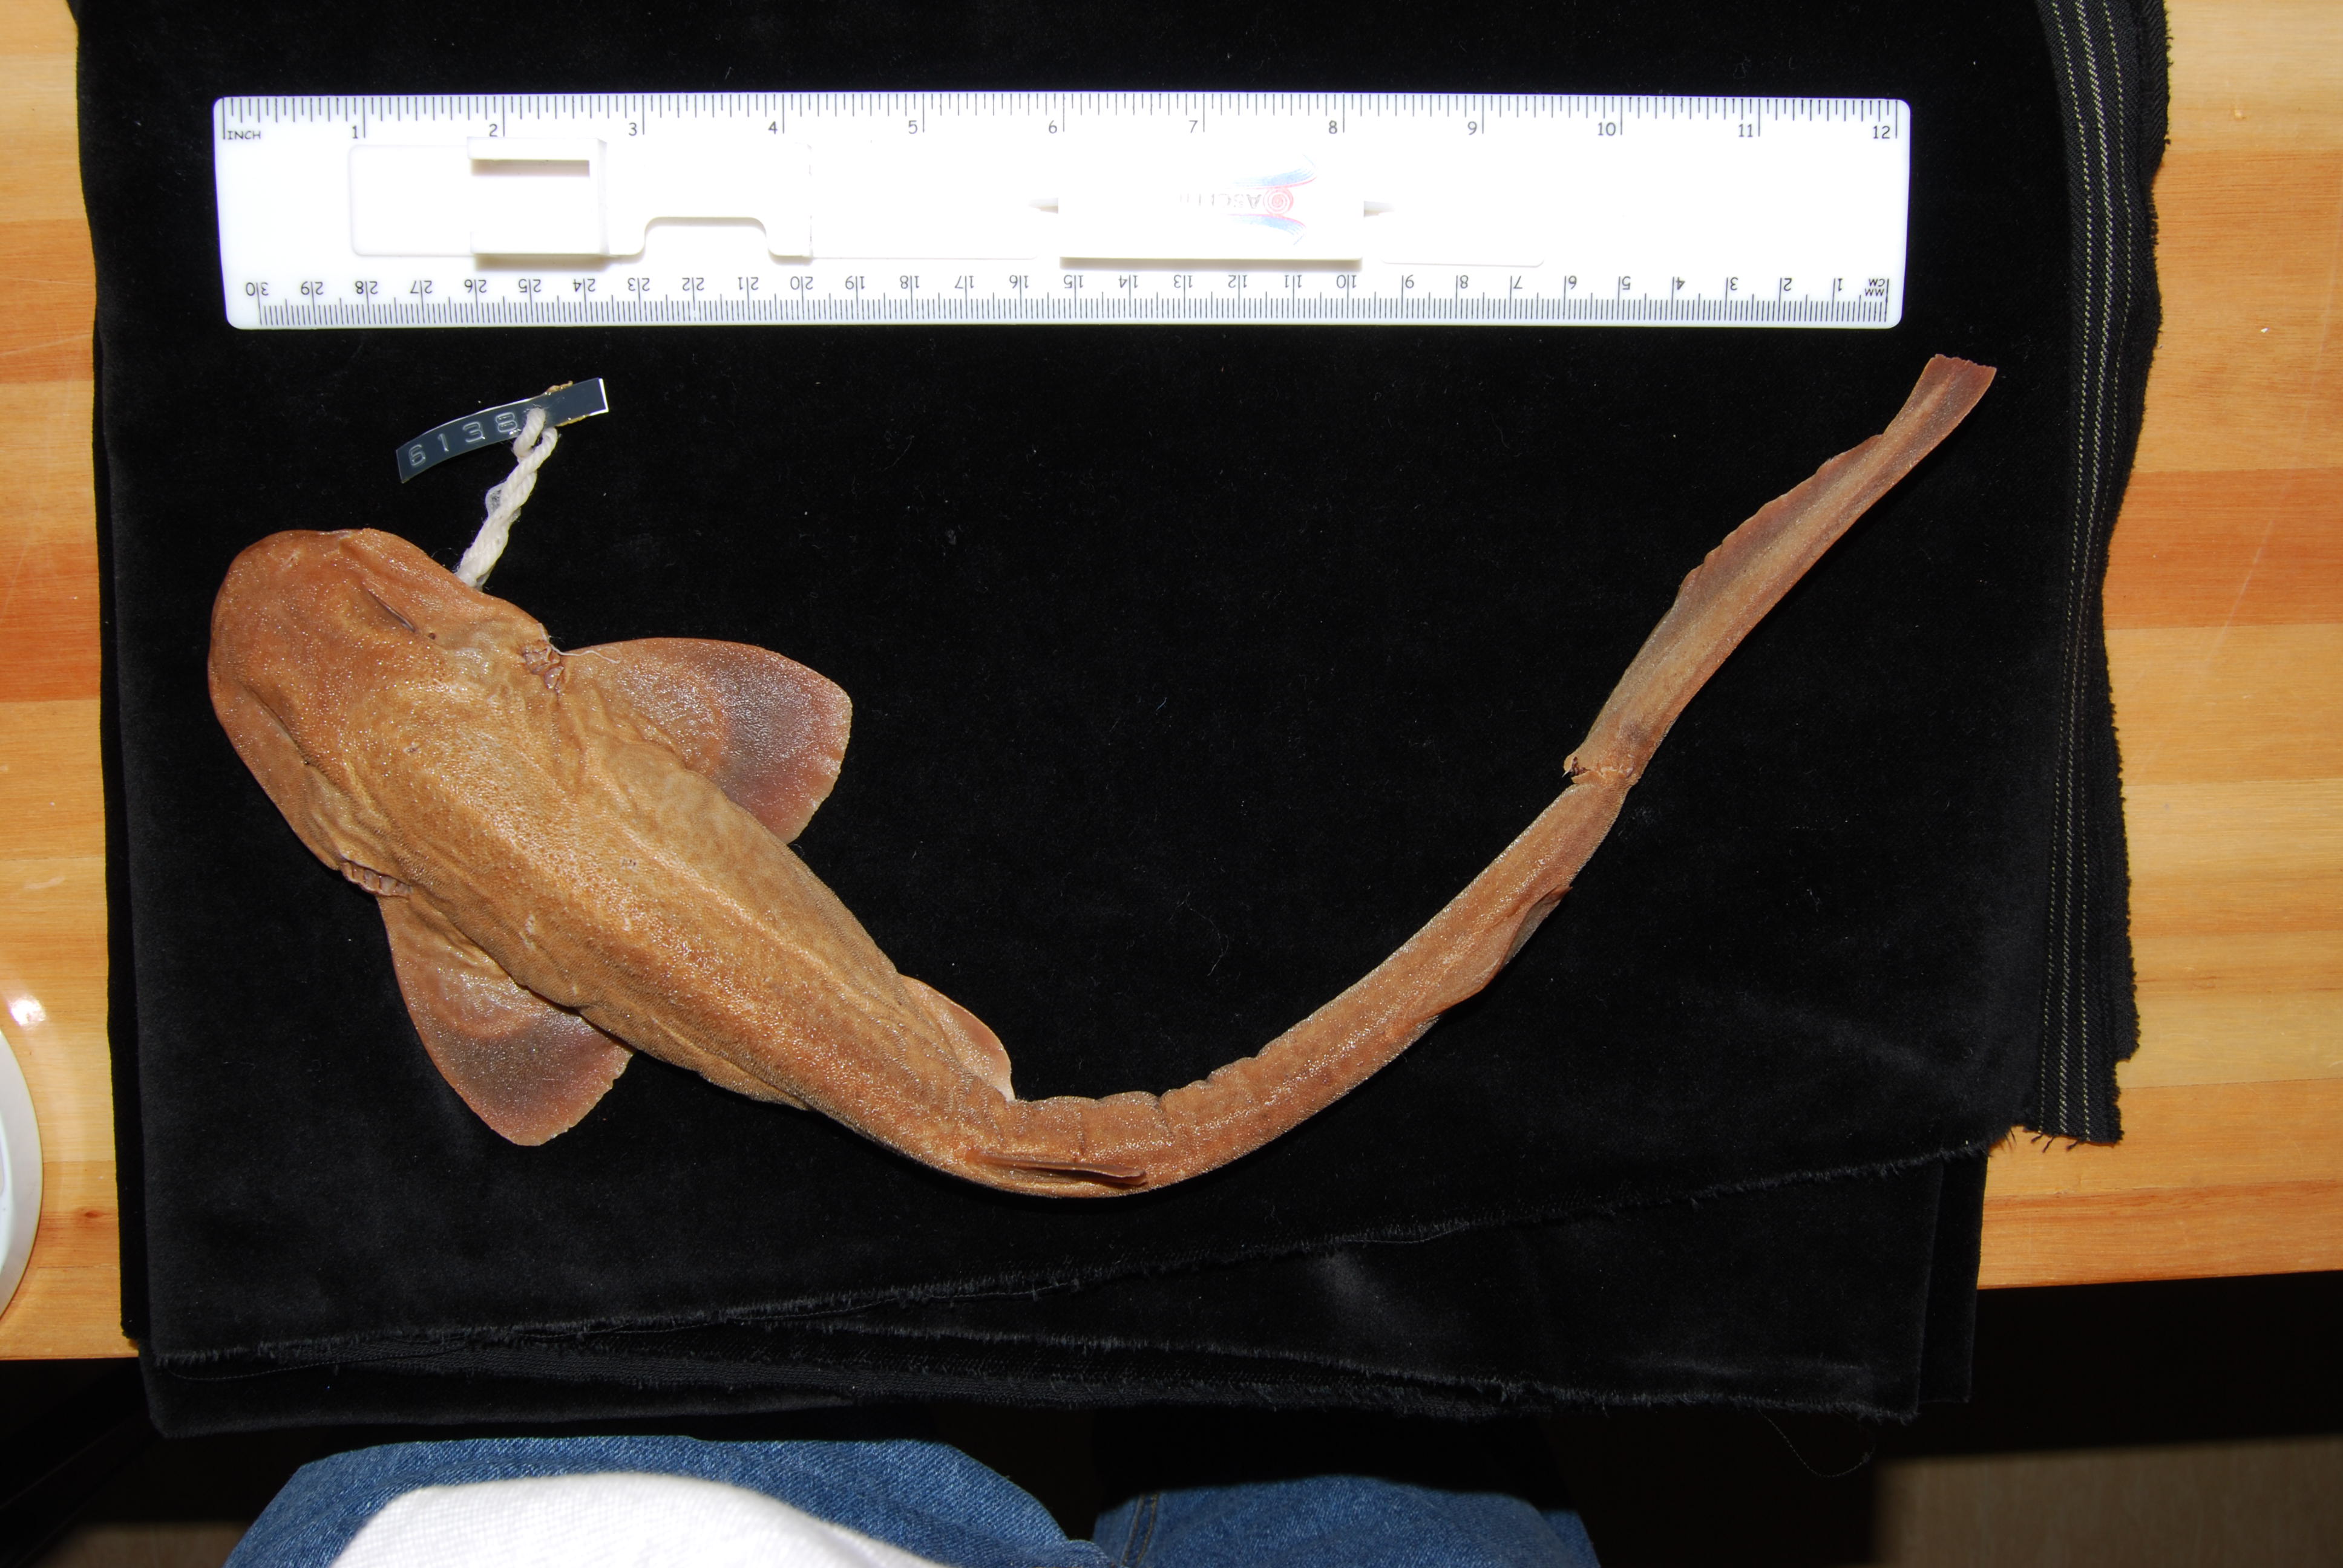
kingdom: Animalia
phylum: Chordata
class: Elasmobranchii
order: Carcharhiniformes
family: Scyliorhinidae
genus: Holohalaelurus
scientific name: Holohalaelurus favus
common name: African spotted catshark
